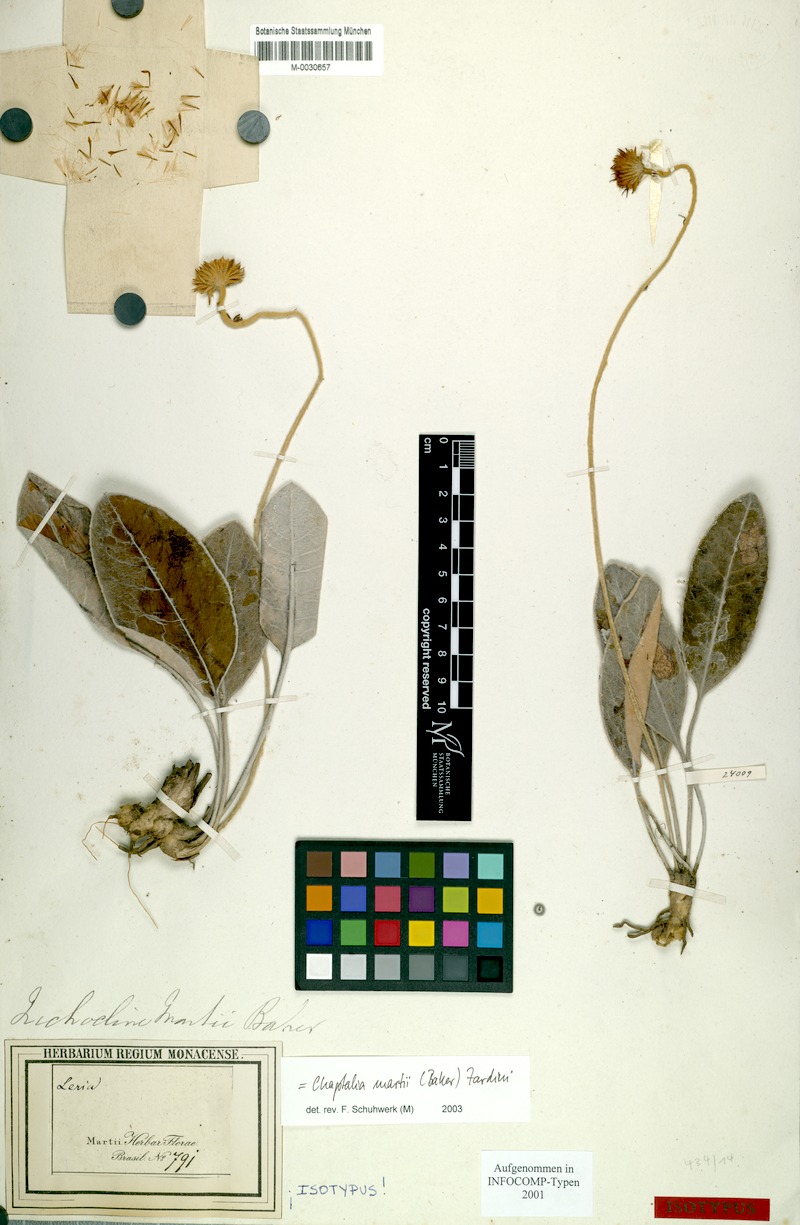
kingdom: Plantae
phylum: Tracheophyta
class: Magnoliopsida
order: Asterales
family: Asteraceae
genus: Chaptalia
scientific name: Chaptalia martii
